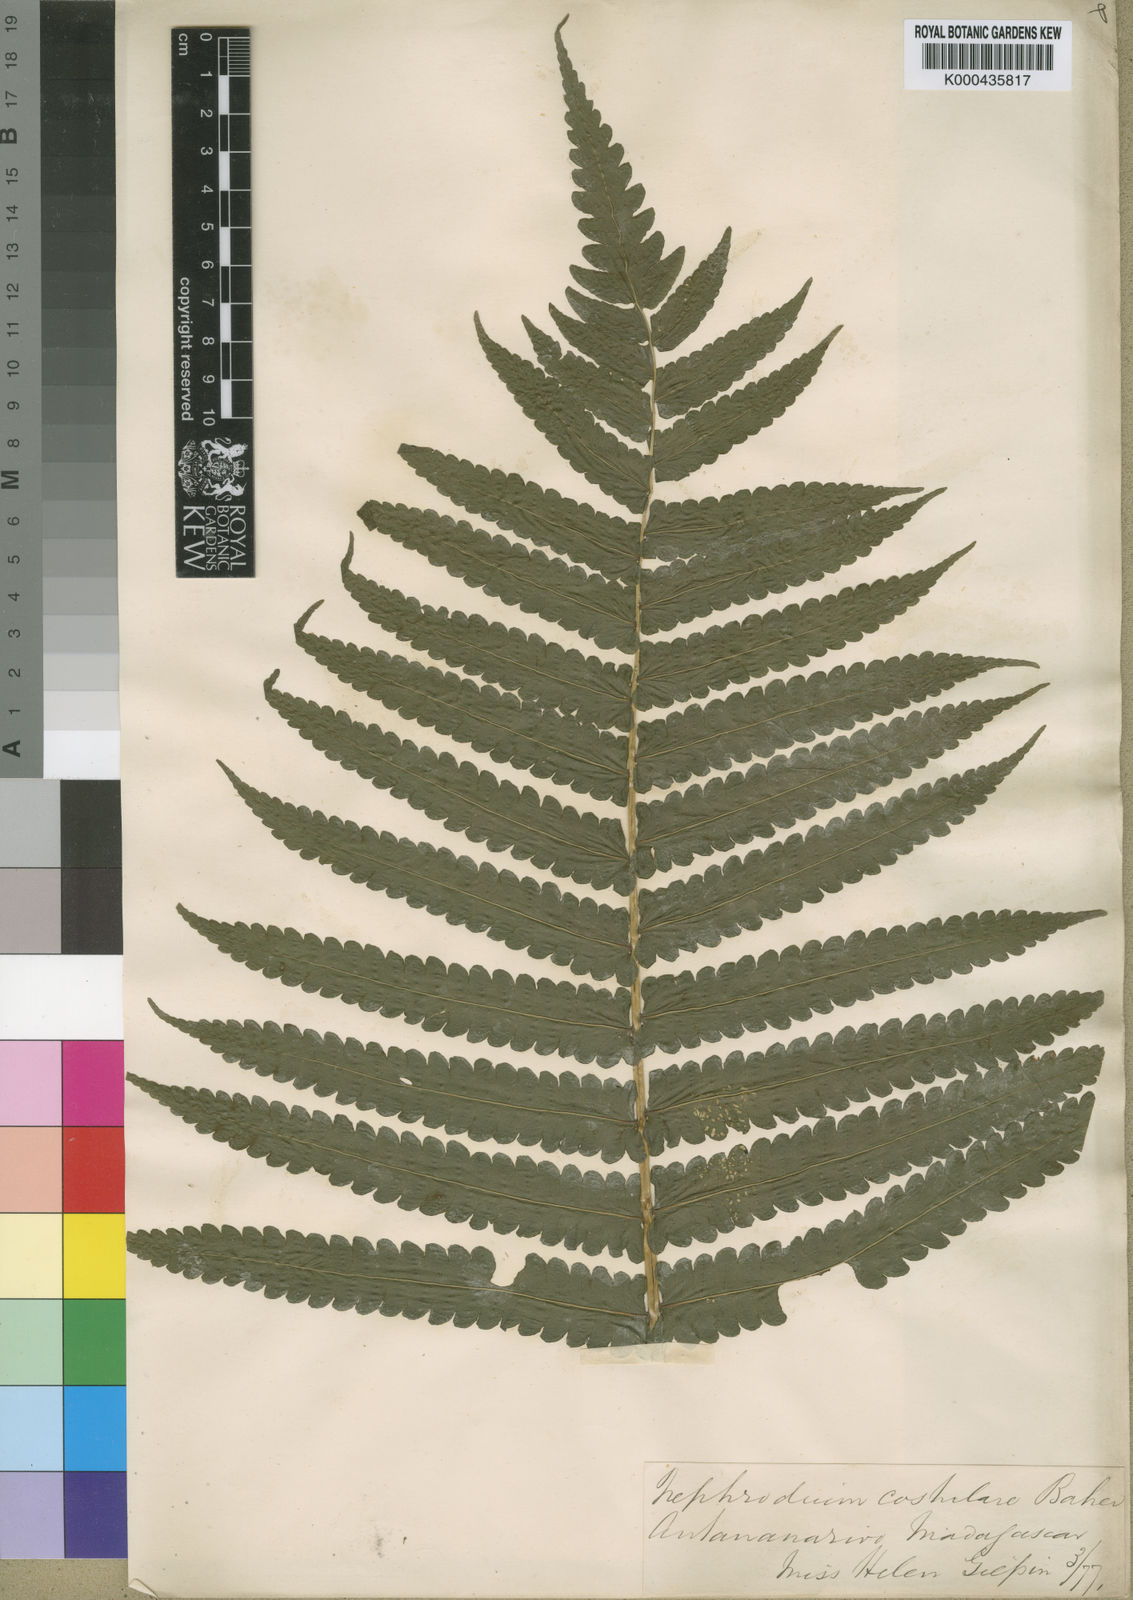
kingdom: Plantae
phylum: Tracheophyta
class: Polypodiopsida
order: Polypodiales
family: Thelypteridaceae
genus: Menisorus
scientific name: Menisorus unitus
